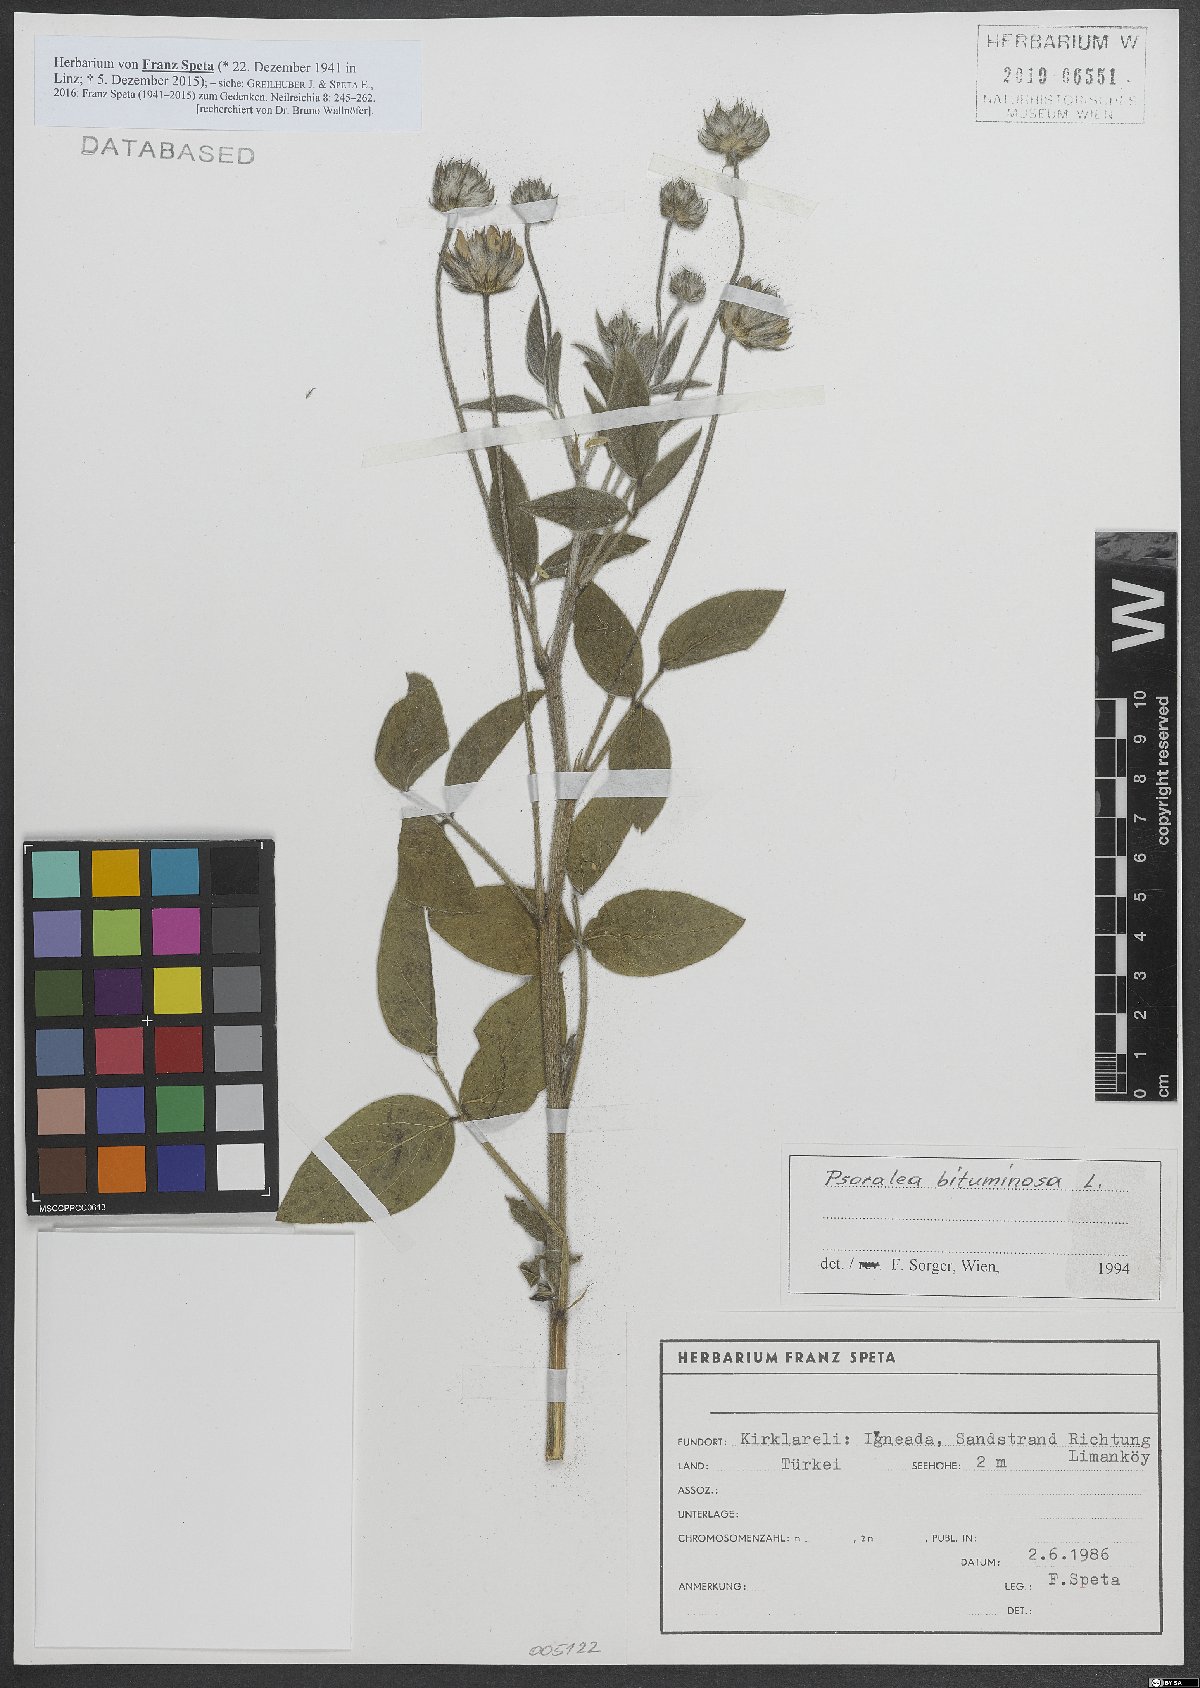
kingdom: Plantae
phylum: Tracheophyta
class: Magnoliopsida
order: Fabales
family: Fabaceae
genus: Bituminaria
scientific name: Bituminaria bituminosa
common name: Arabian pea
